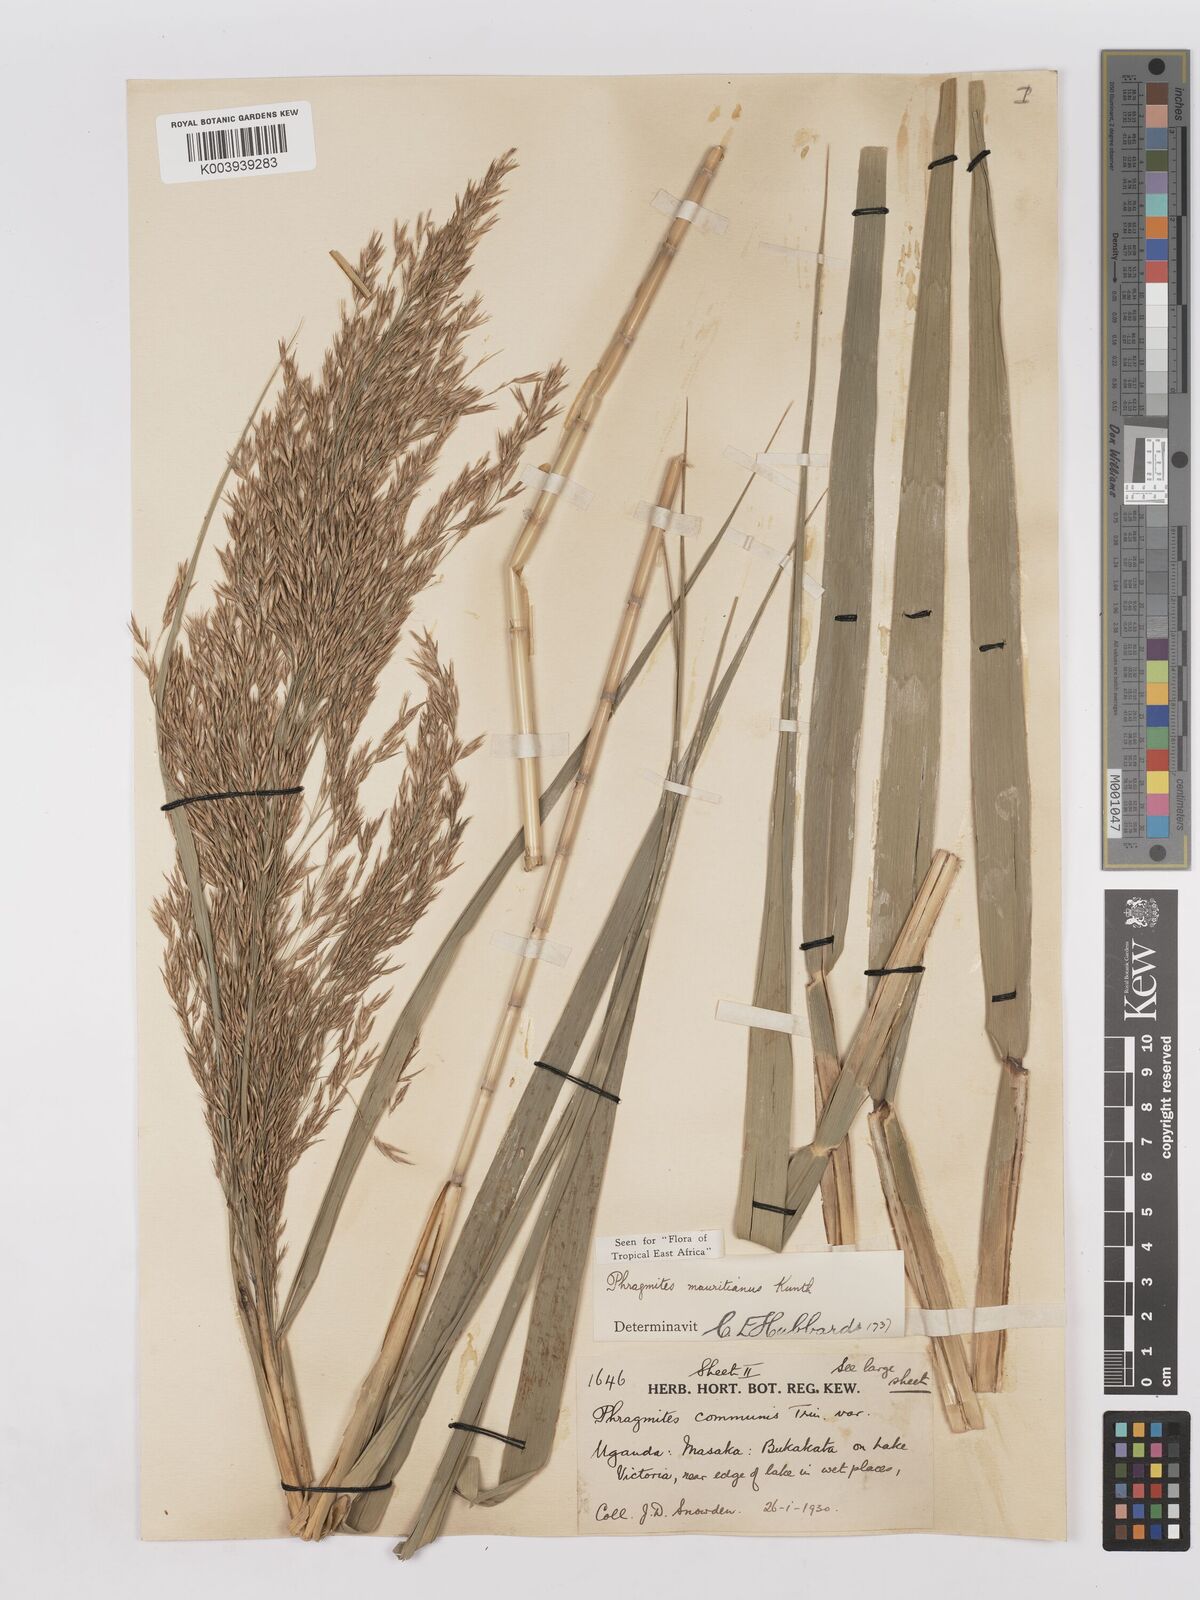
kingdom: Plantae
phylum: Tracheophyta
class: Liliopsida
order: Poales
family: Poaceae
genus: Phragmites
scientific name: Phragmites mauritianus
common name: Reed grass
